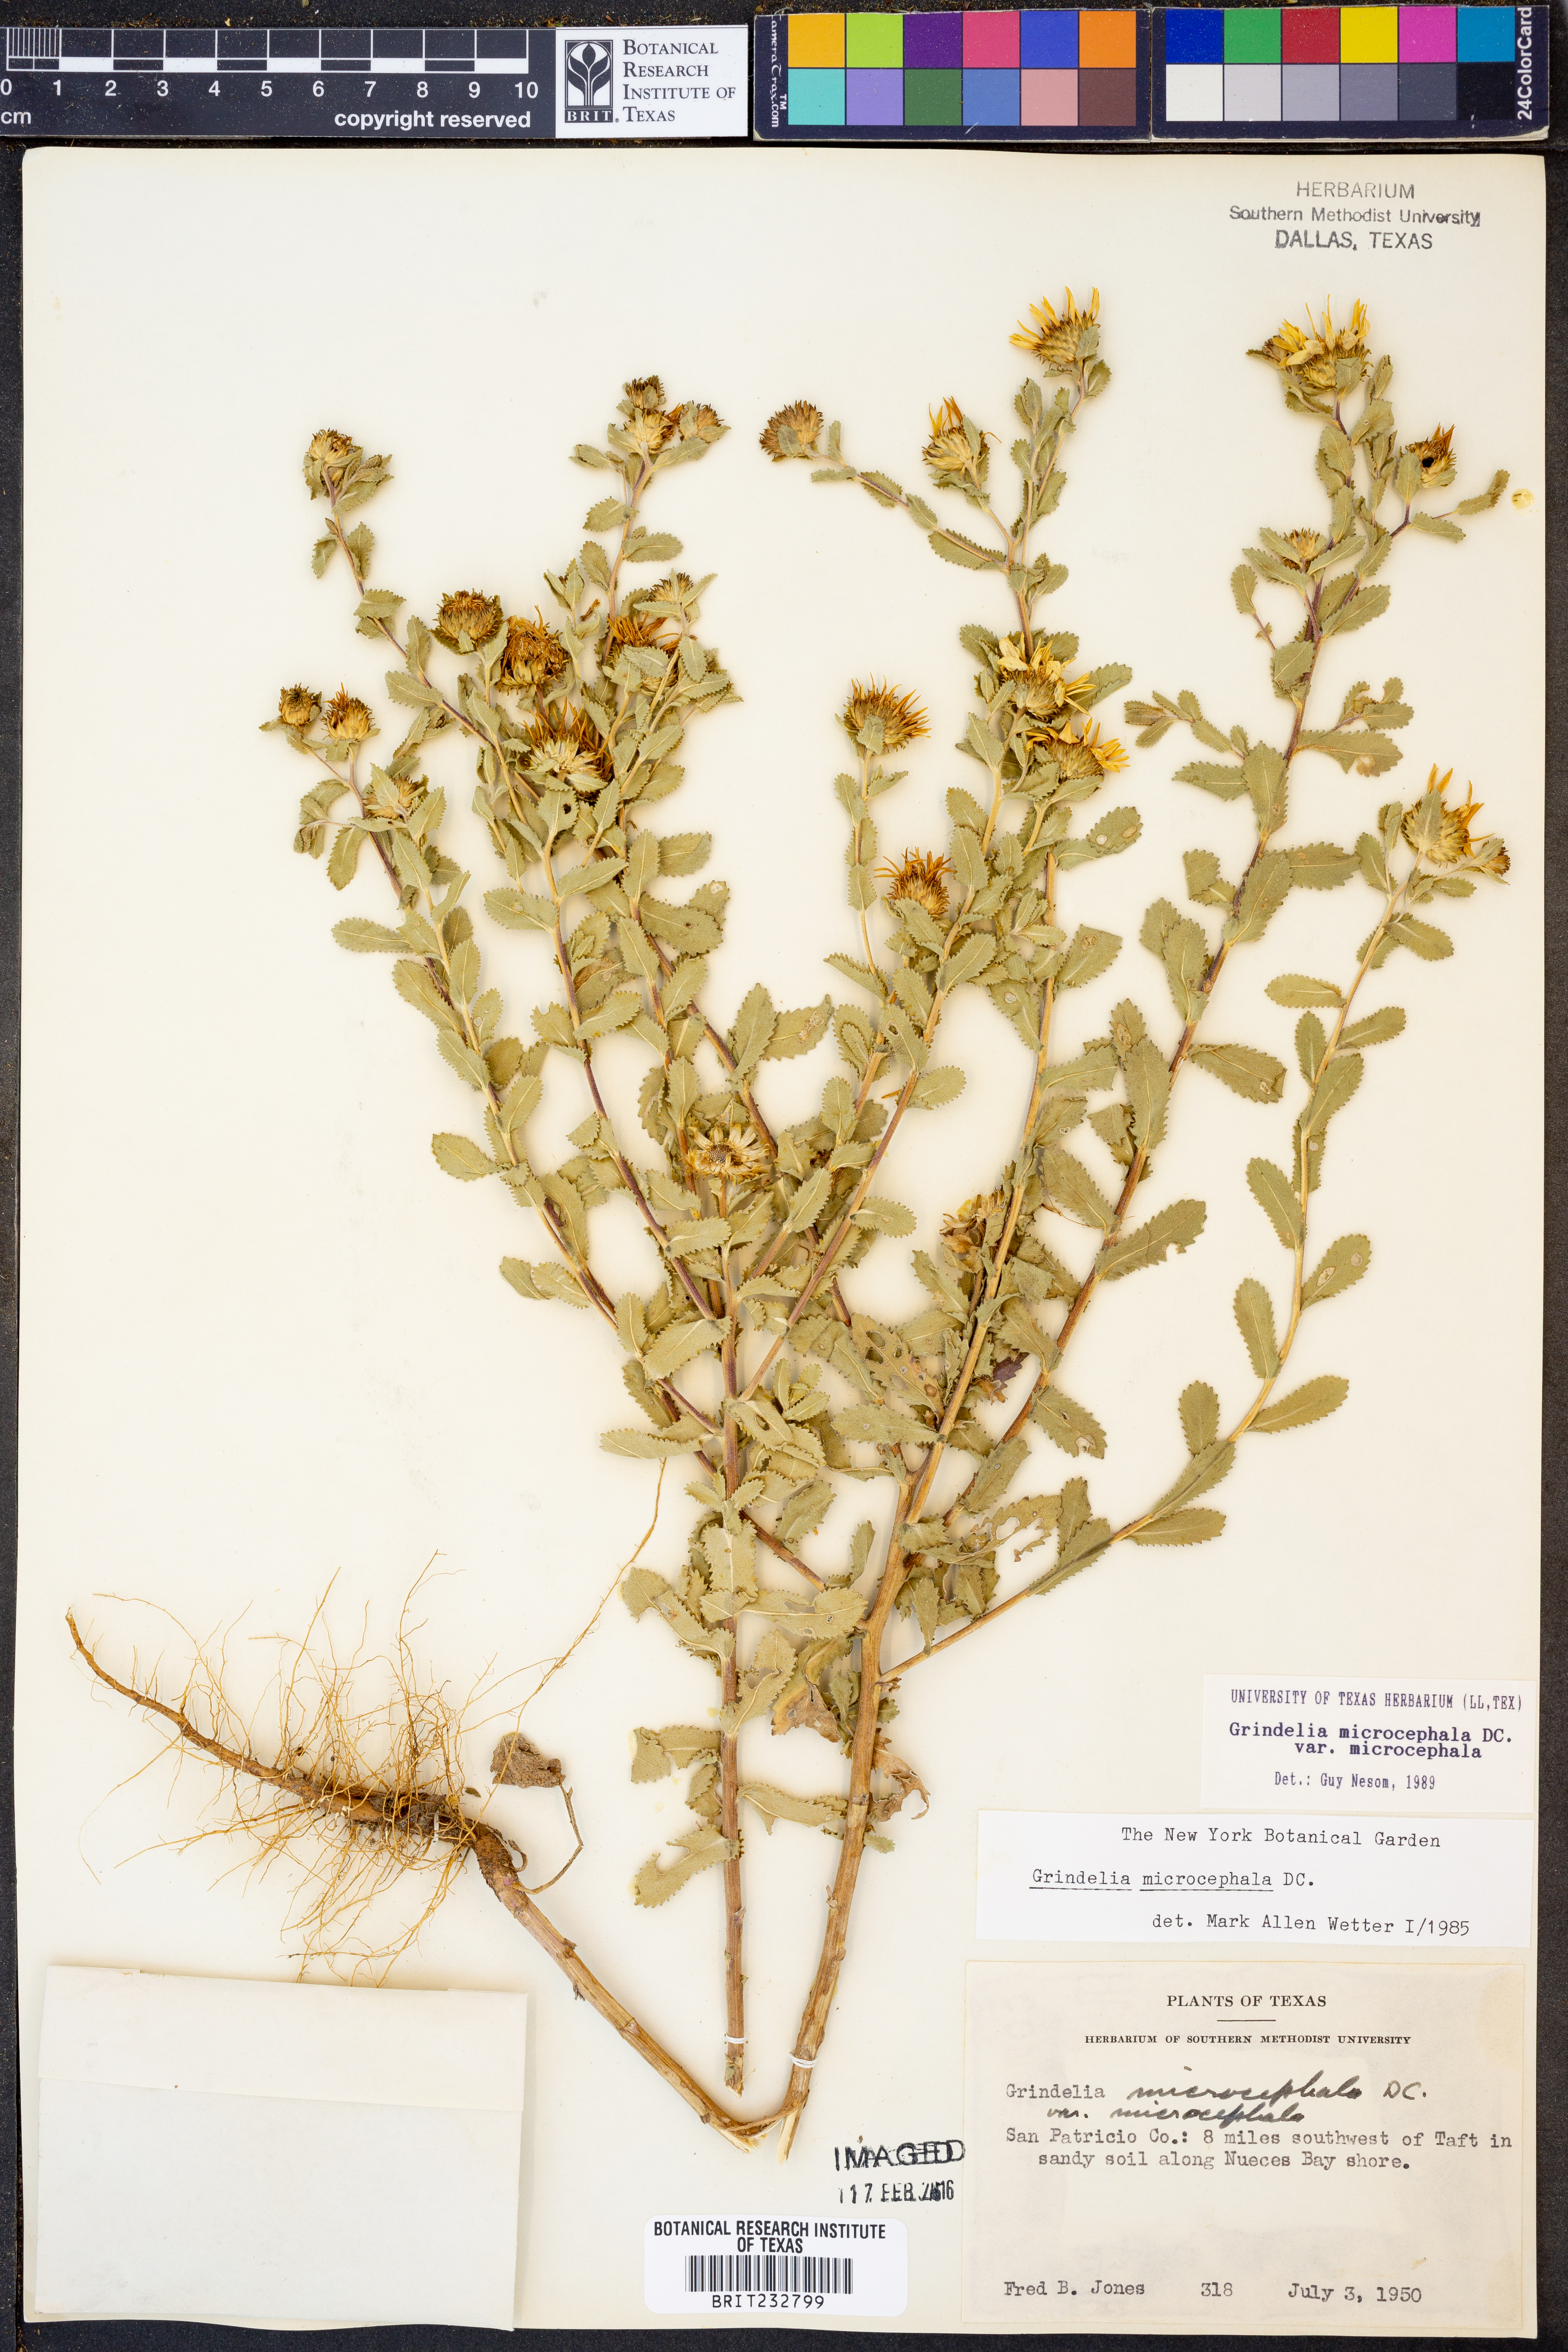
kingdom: Plantae
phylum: Tracheophyta
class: Magnoliopsida
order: Asterales
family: Asteraceae
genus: Grindelia
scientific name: Grindelia microcephala
